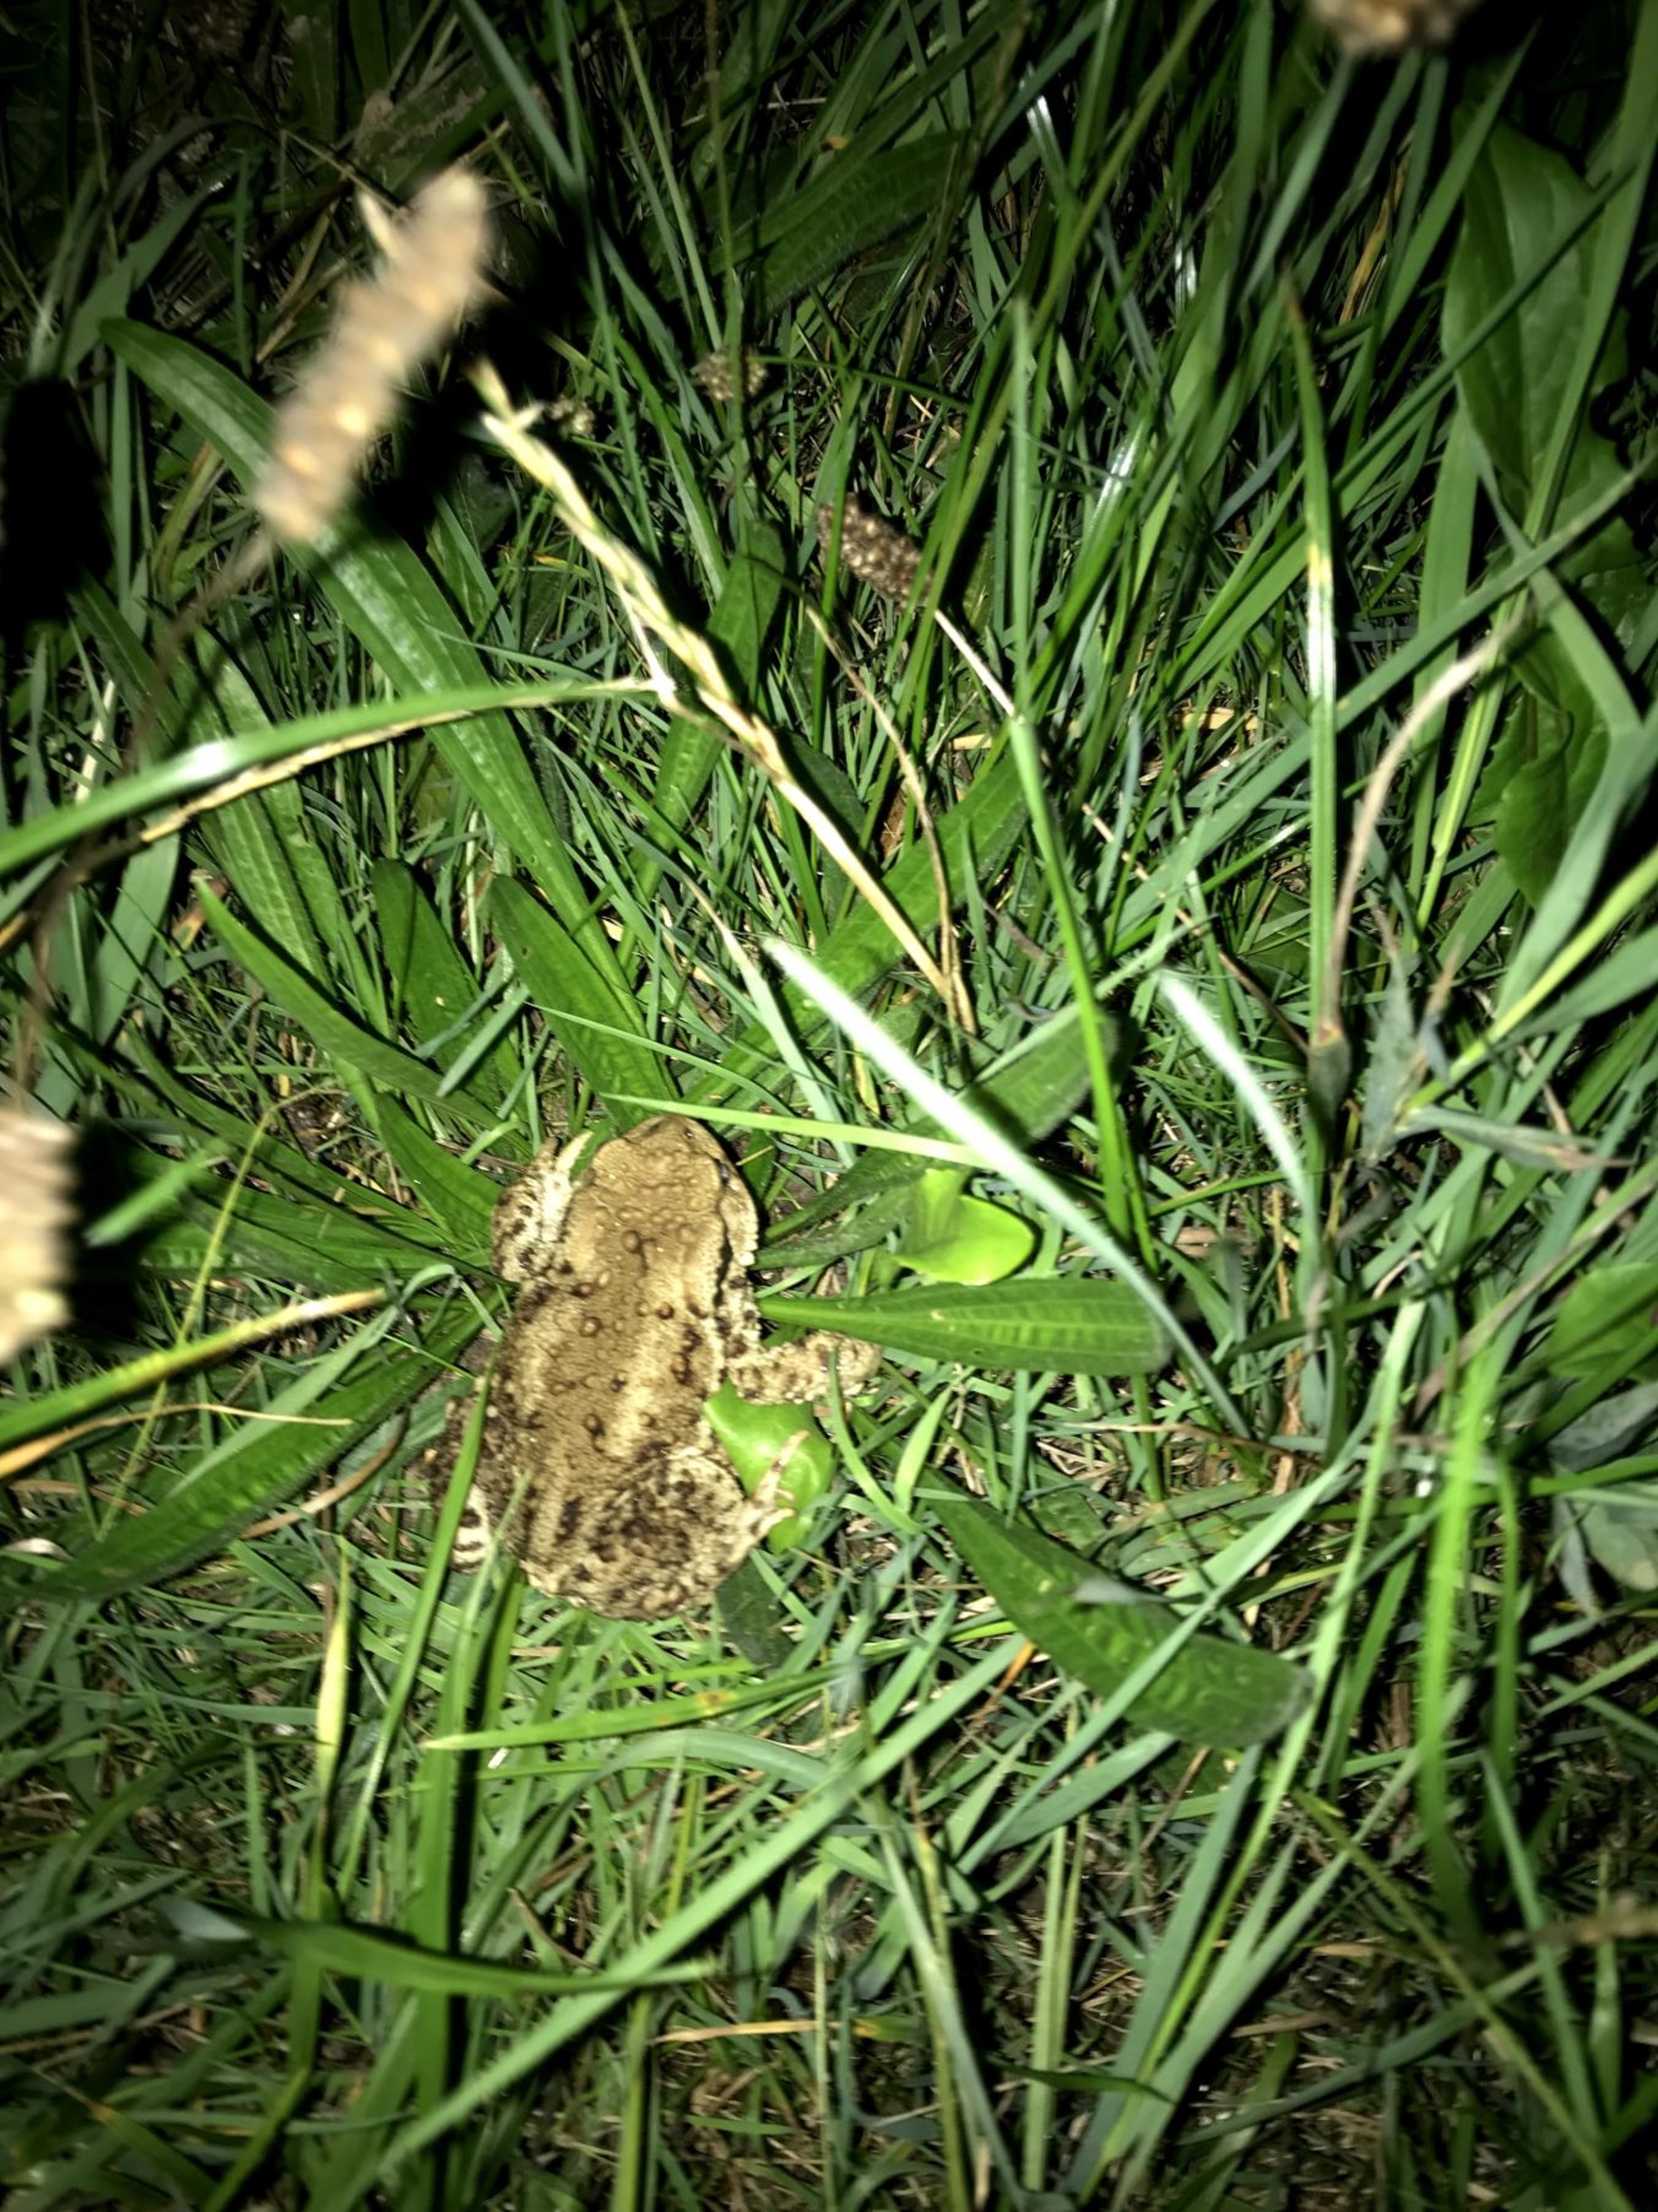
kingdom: Animalia
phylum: Chordata
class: Amphibia
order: Anura
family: Bufonidae
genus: Bufo
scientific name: Bufo bufo
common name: Skrubtudse
